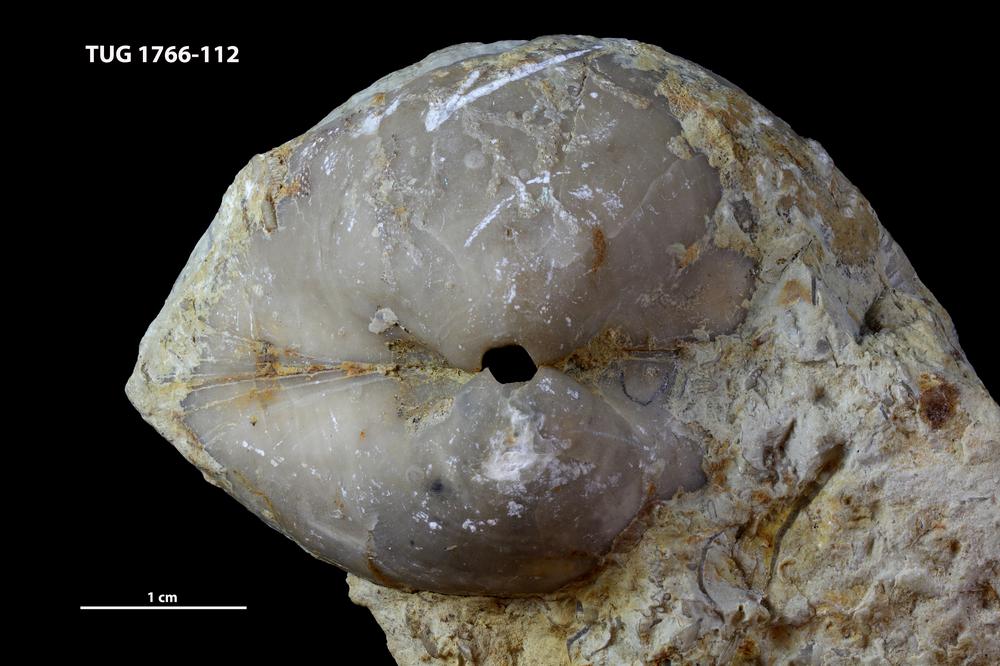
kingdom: Animalia
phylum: Brachiopoda
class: Rhynchonellata
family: Porambonitidae
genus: Porambonites
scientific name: Porambonites
